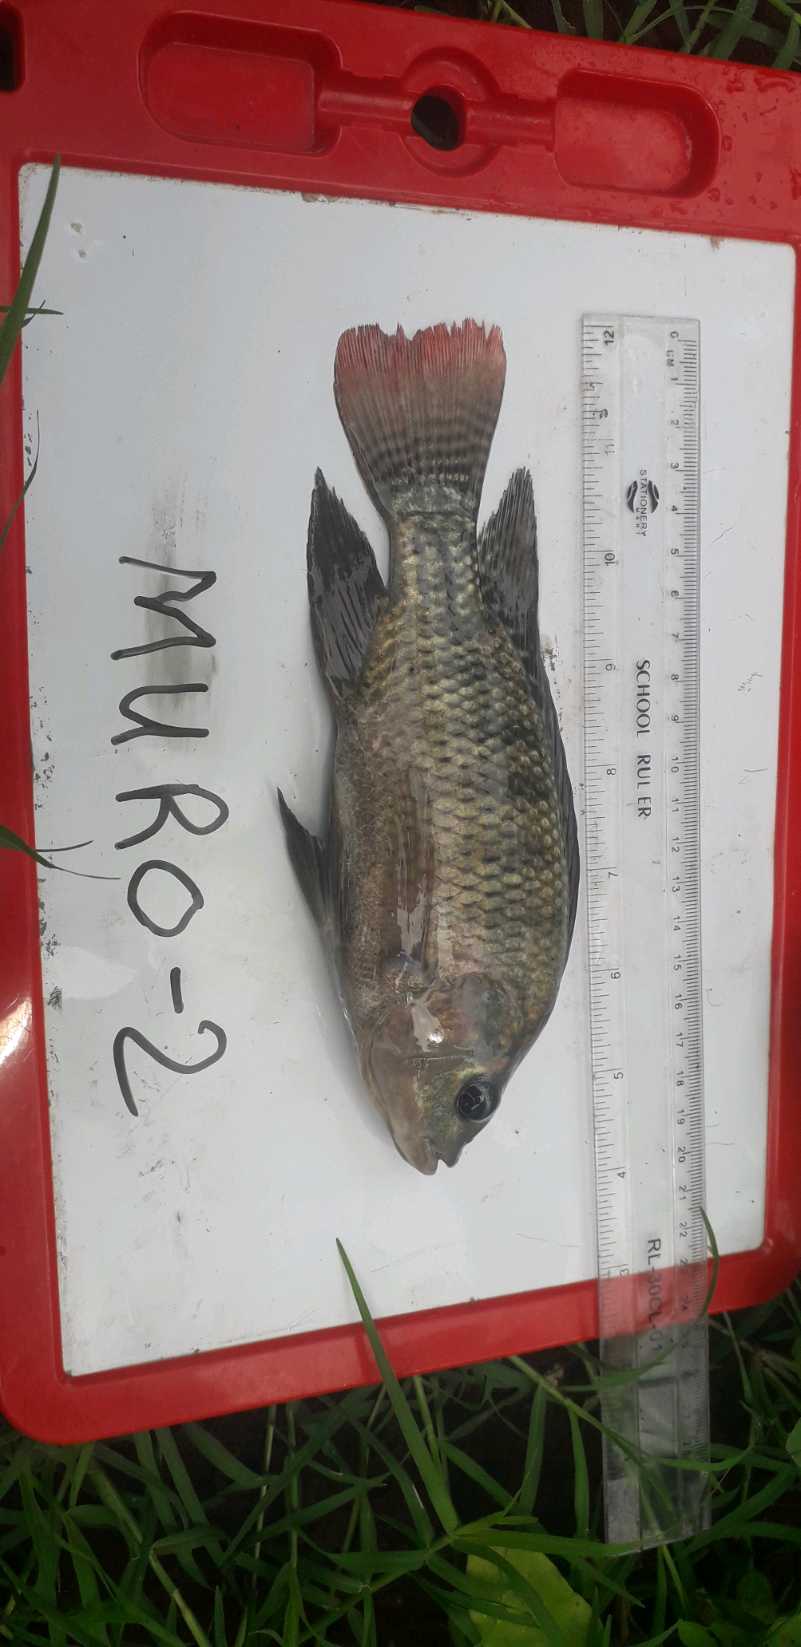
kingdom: Animalia
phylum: Chordata
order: Perciformes
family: Cichlidae
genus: Oreochromis
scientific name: Oreochromis niloticus
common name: Nile tilapia
